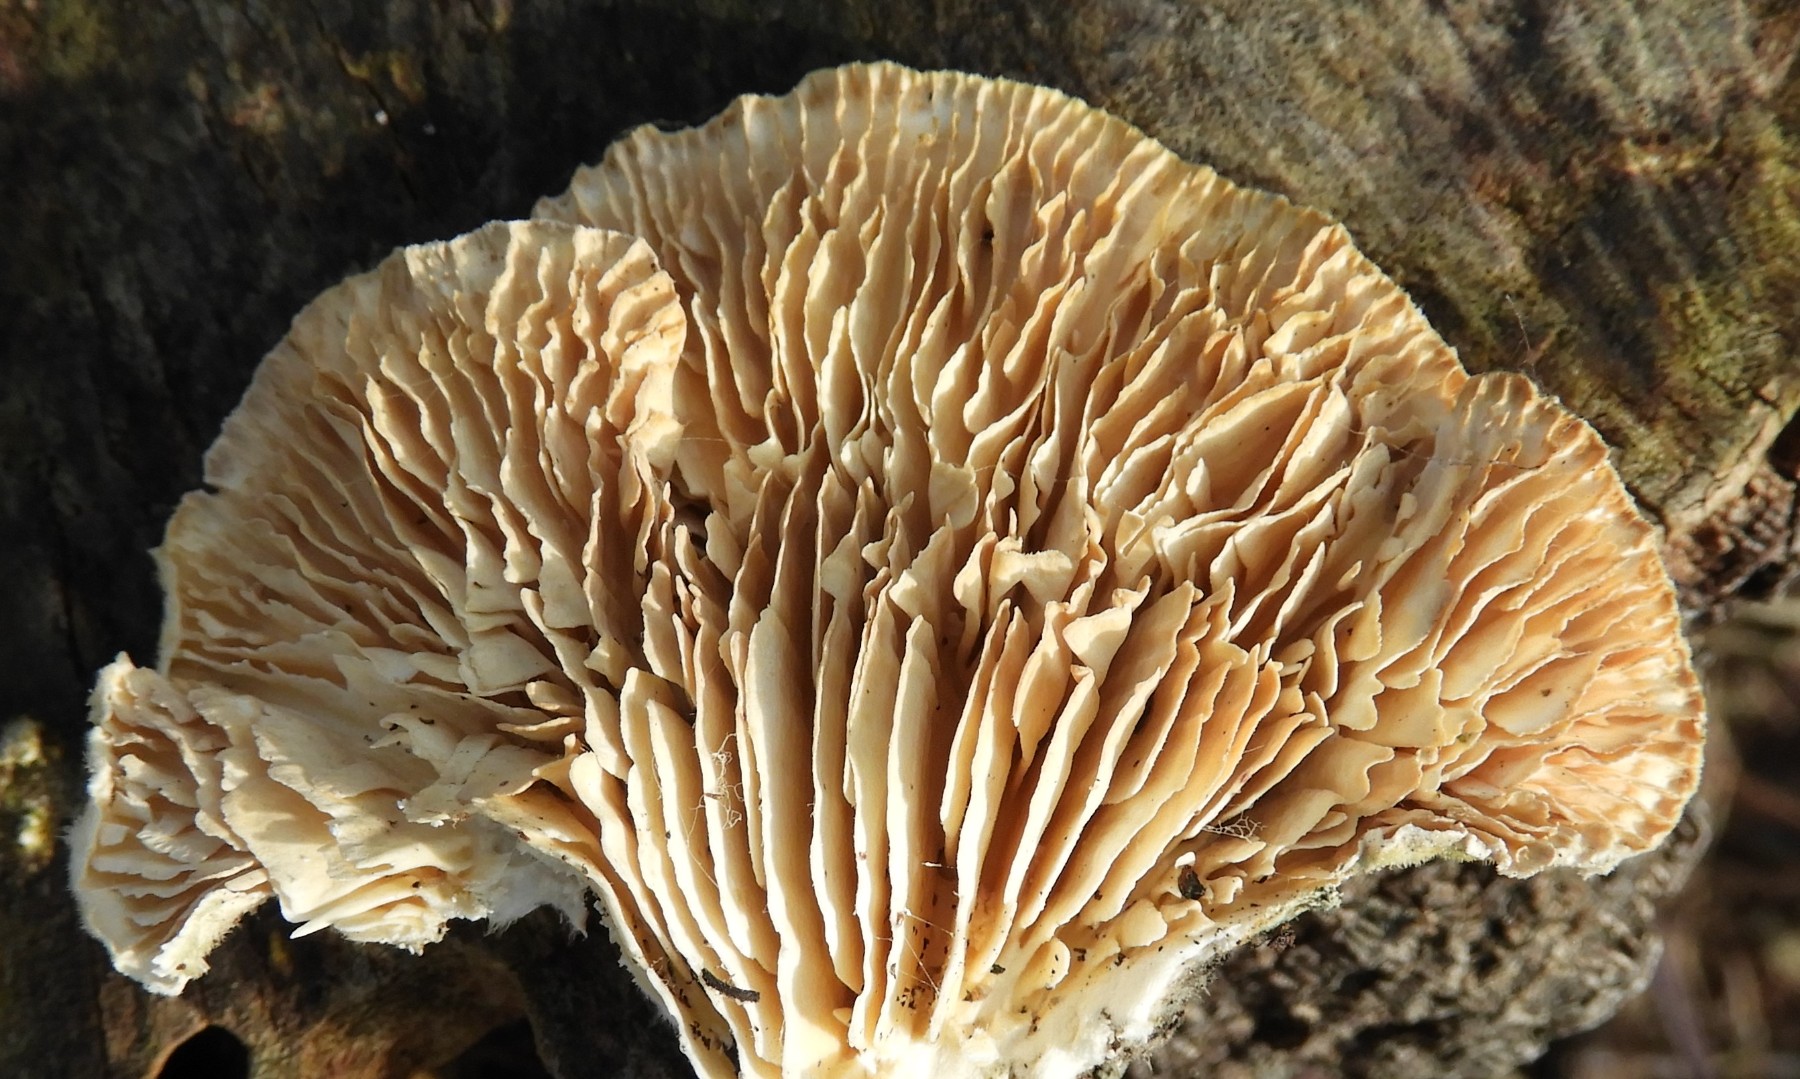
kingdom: Fungi
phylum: Basidiomycota
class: Agaricomycetes
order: Polyporales
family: Polyporaceae
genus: Lenzites
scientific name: Lenzites betulinus
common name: birke-læderporesvamp
